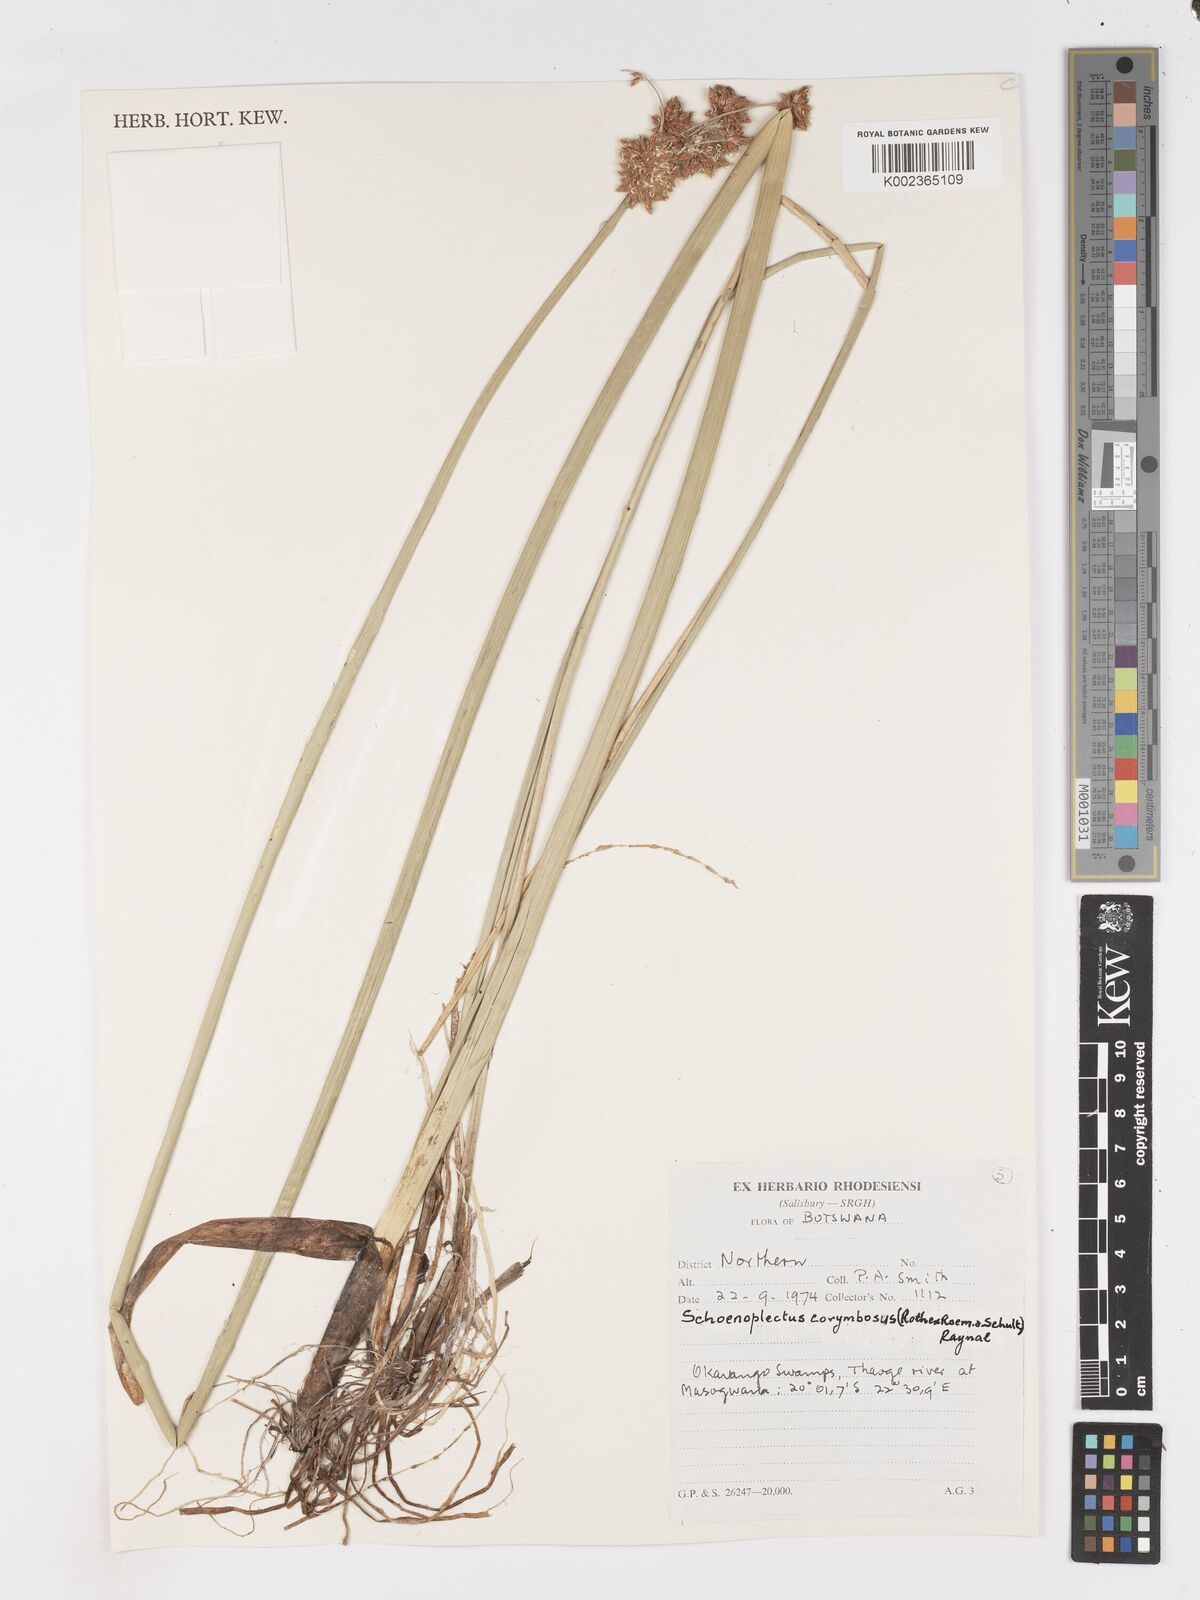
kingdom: Plantae
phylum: Tracheophyta
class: Liliopsida
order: Poales
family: Cyperaceae
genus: Schoenoplectiella
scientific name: Schoenoplectiella brachyceras
